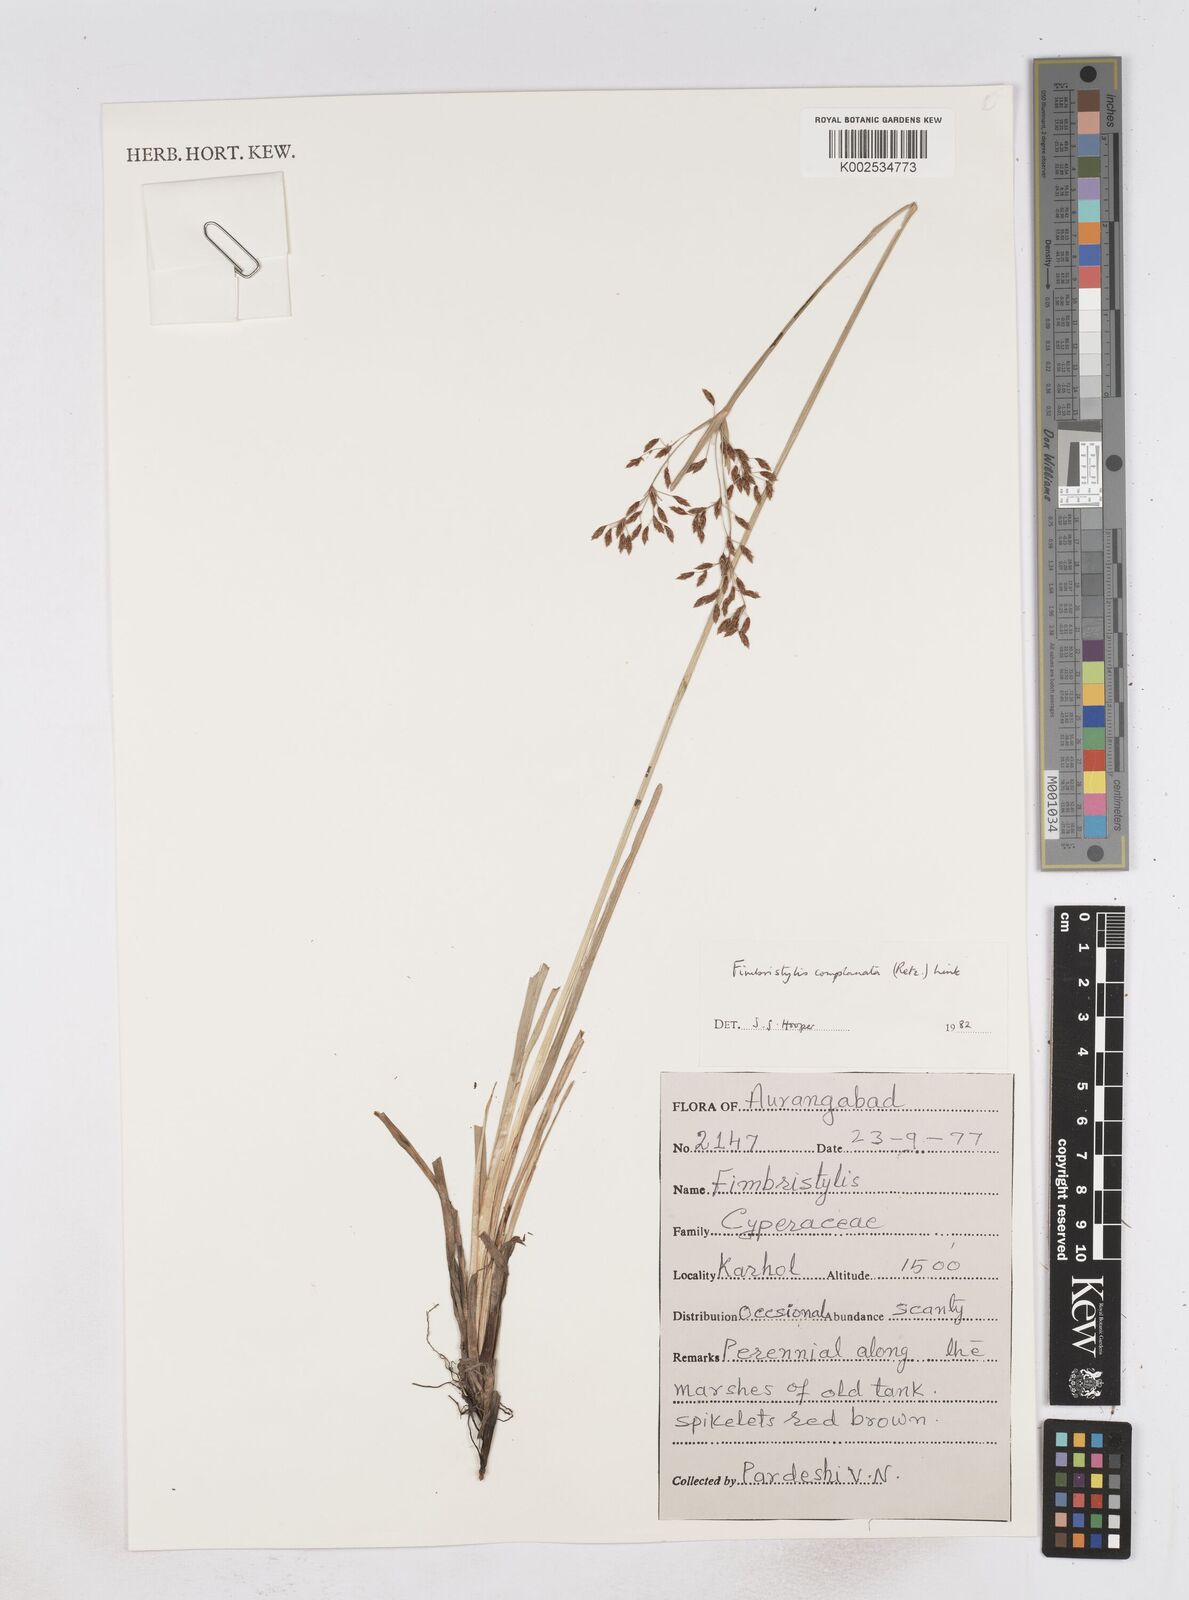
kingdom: Plantae
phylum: Tracheophyta
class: Liliopsida
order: Poales
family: Cyperaceae
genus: Fimbristylis
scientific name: Fimbristylis complanata
